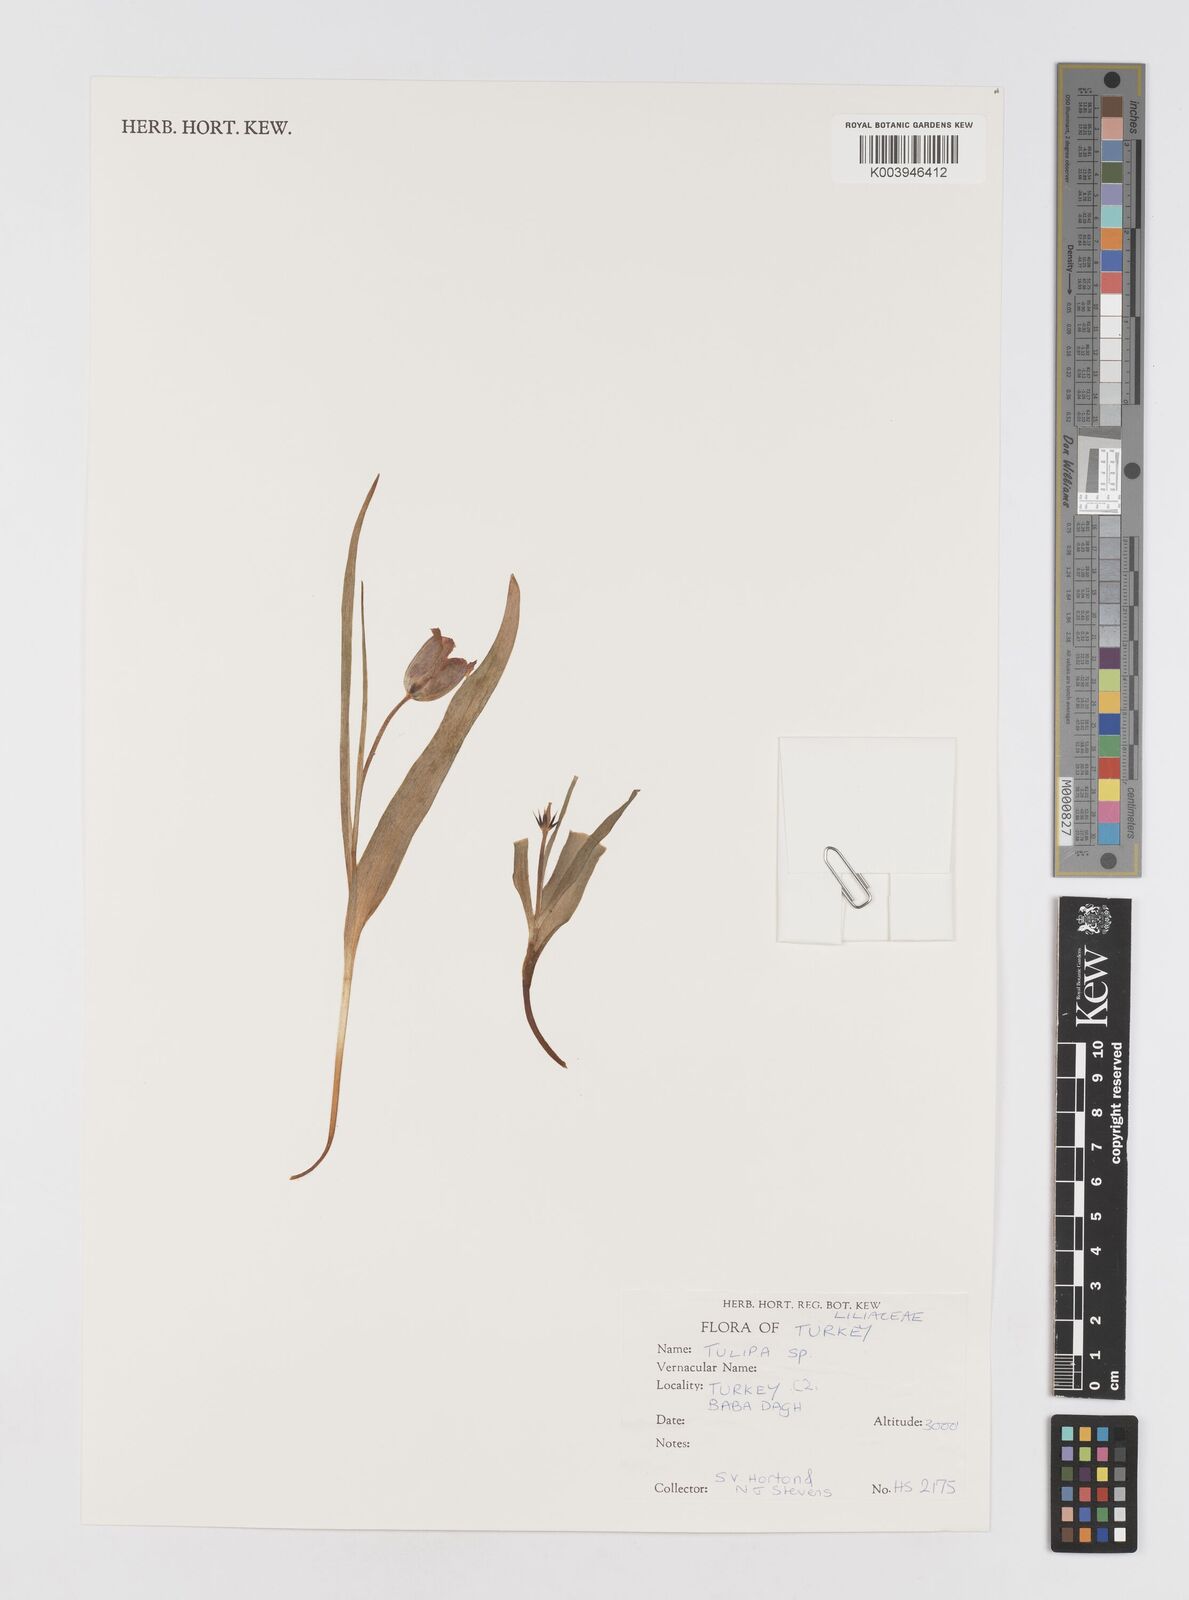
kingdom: Plantae
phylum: Tracheophyta
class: Liliopsida
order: Liliales
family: Liliaceae
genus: Tulipa
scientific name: Tulipa
